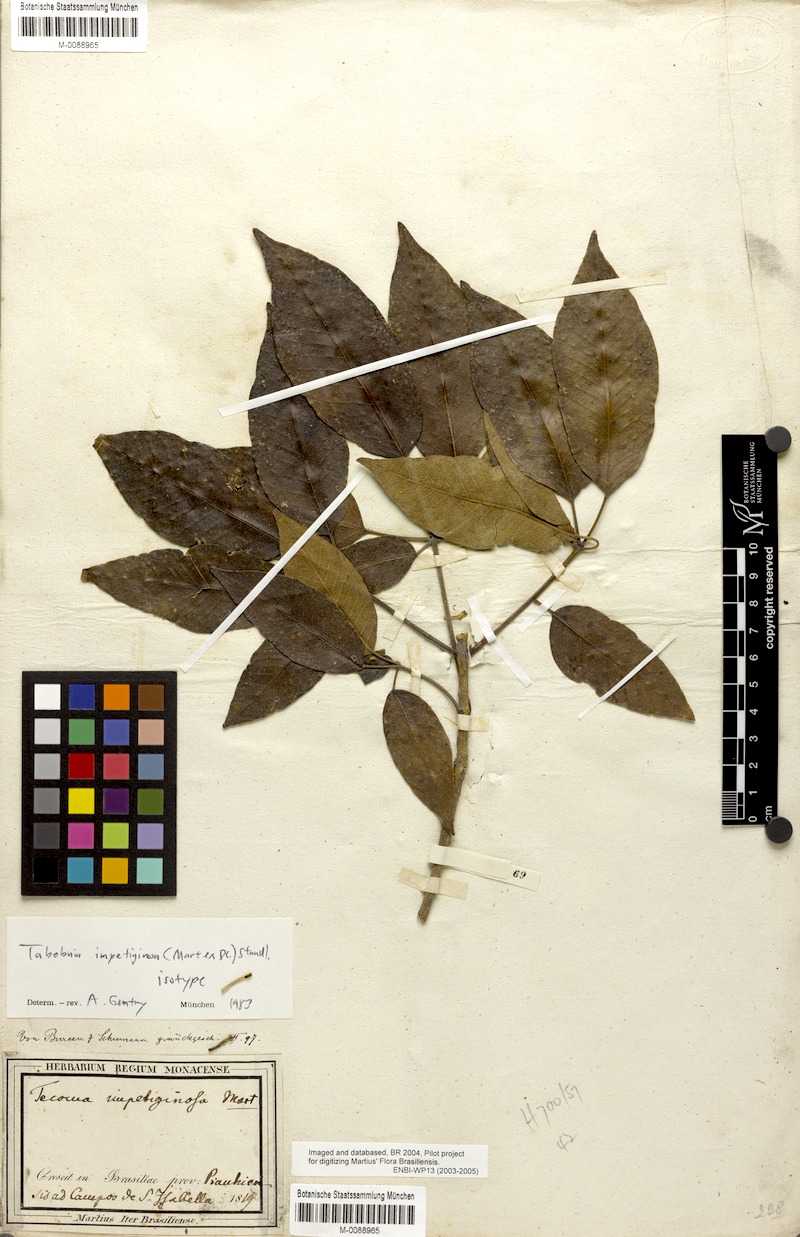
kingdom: Plantae
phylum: Tracheophyta
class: Magnoliopsida
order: Lamiales
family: Bignoniaceae
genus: Handroanthus
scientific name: Handroanthus impetiginosum
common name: Pink trumpet tree
